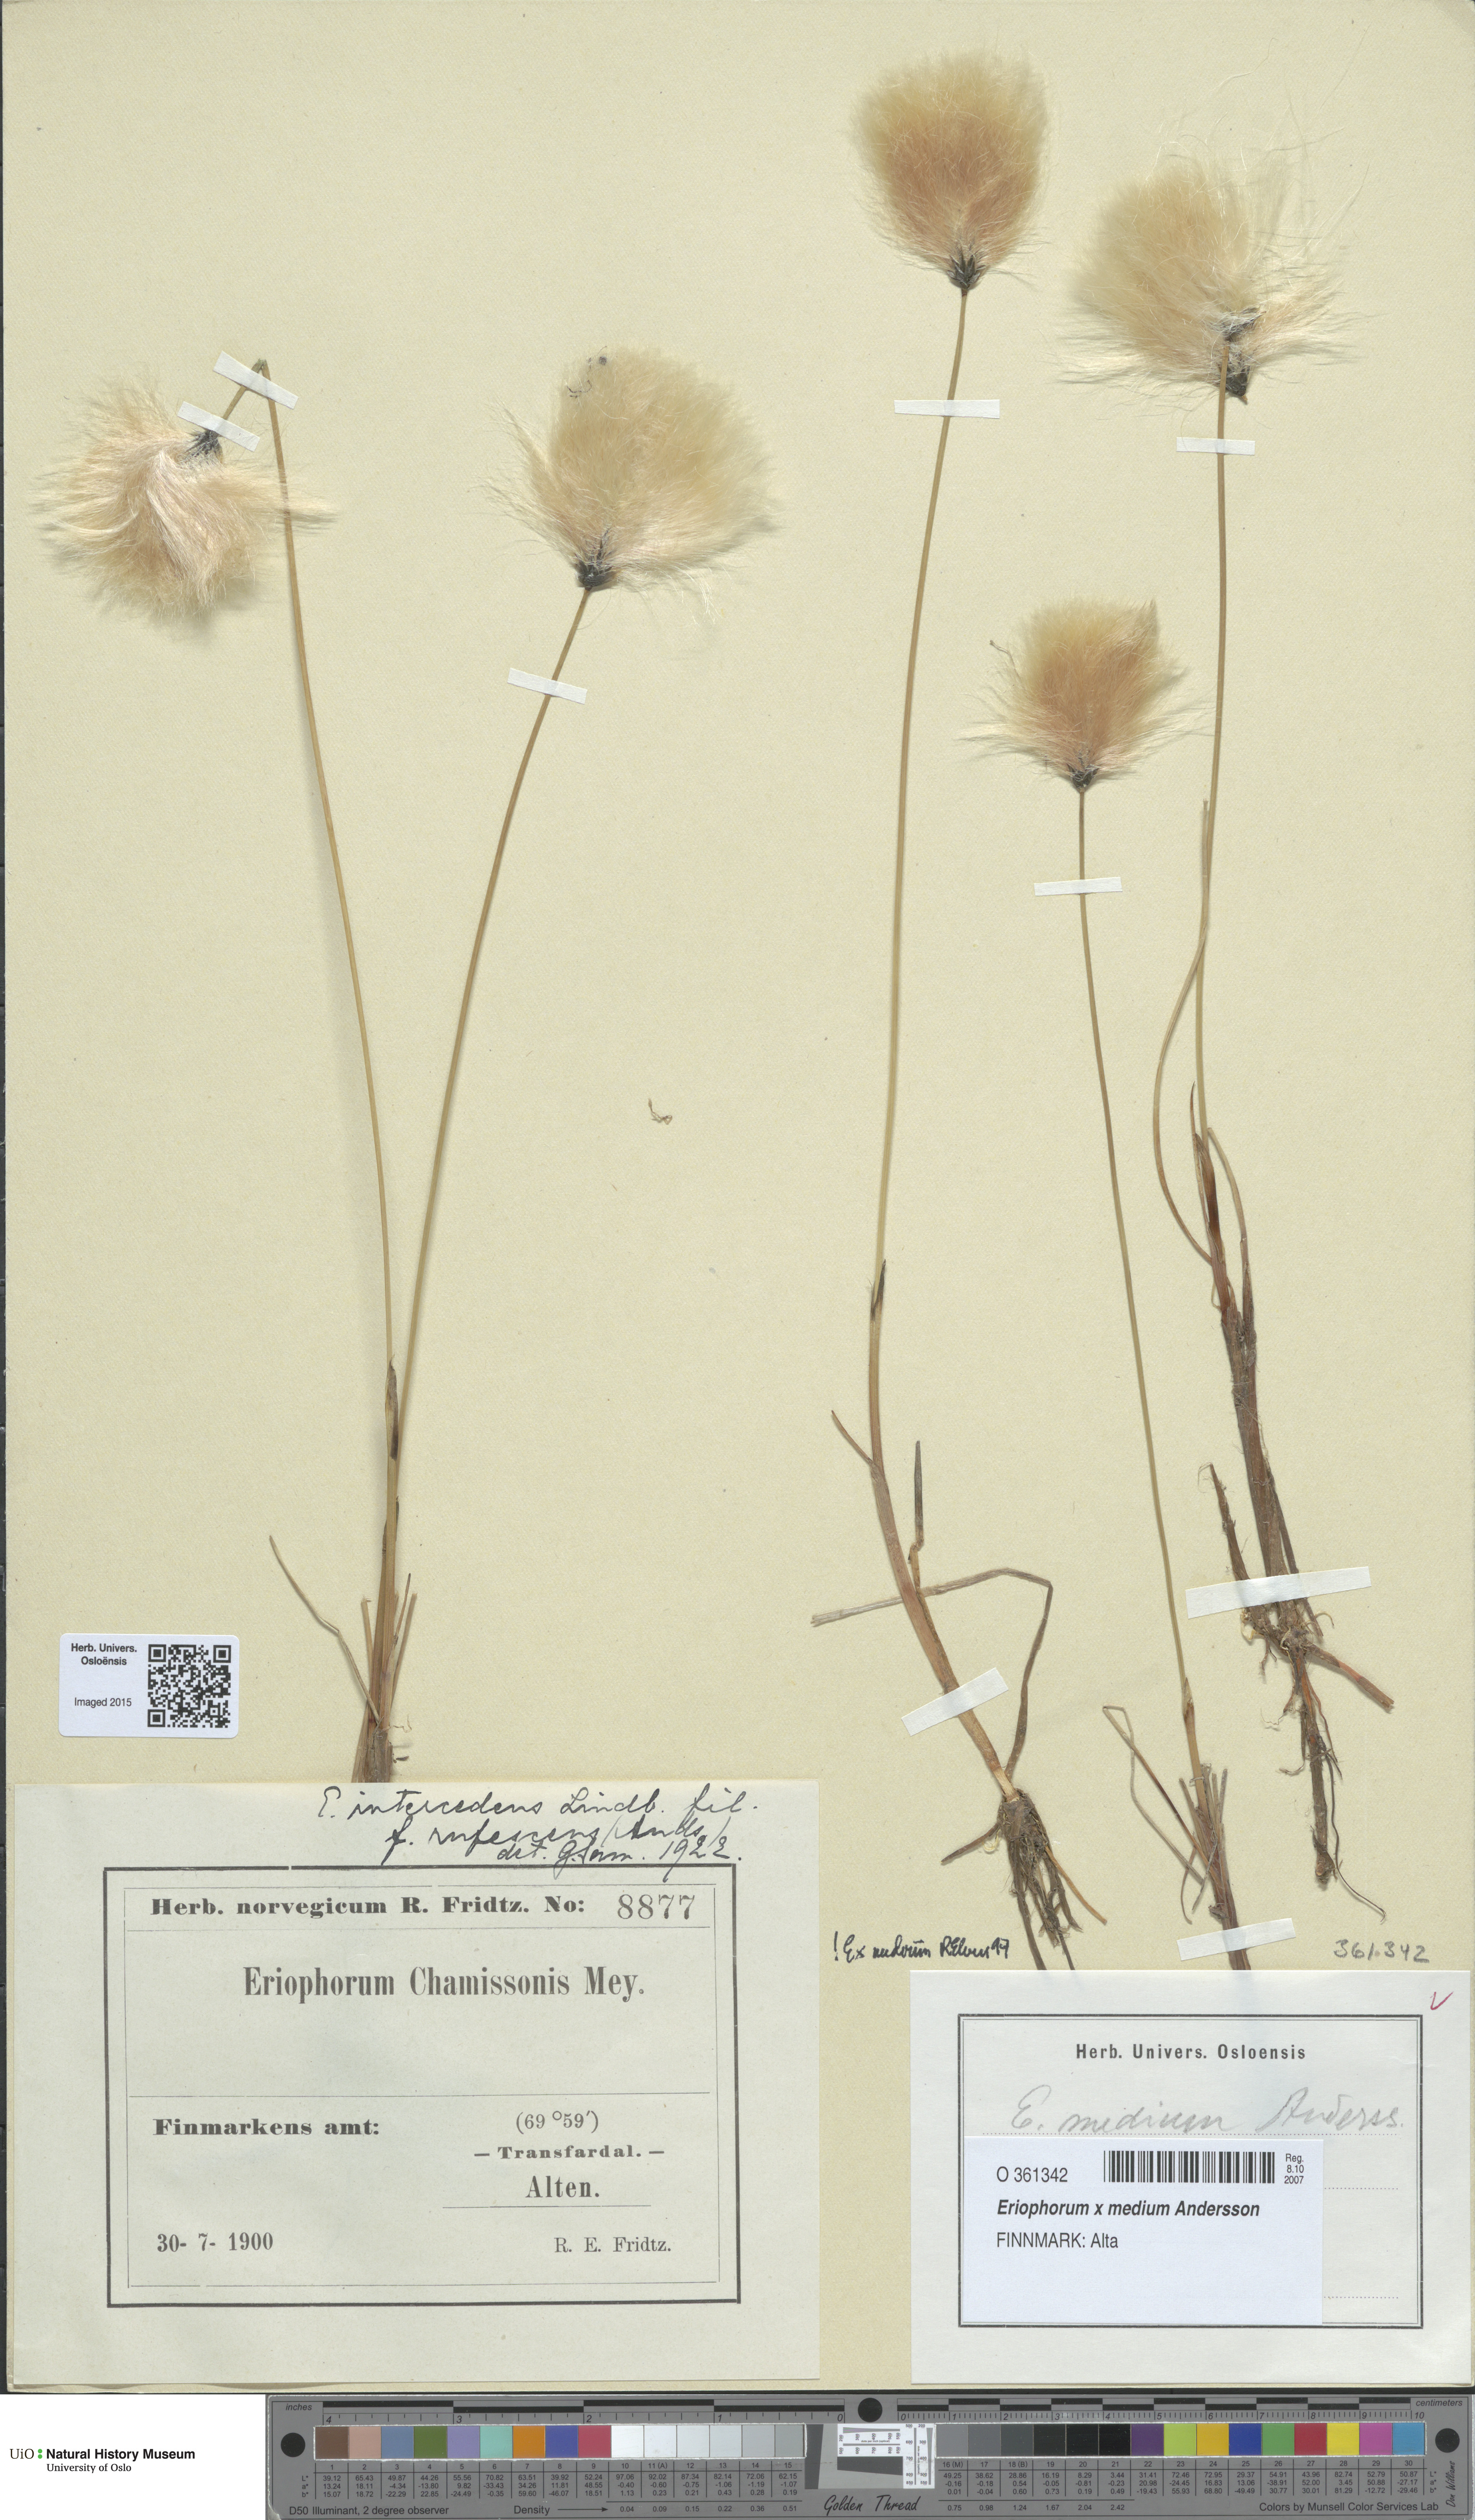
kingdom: Plantae
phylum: Tracheophyta
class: Liliopsida
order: Poales
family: Cyperaceae
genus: Eriophorum
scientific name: Eriophorum medium
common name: Intermediate cottongrass
